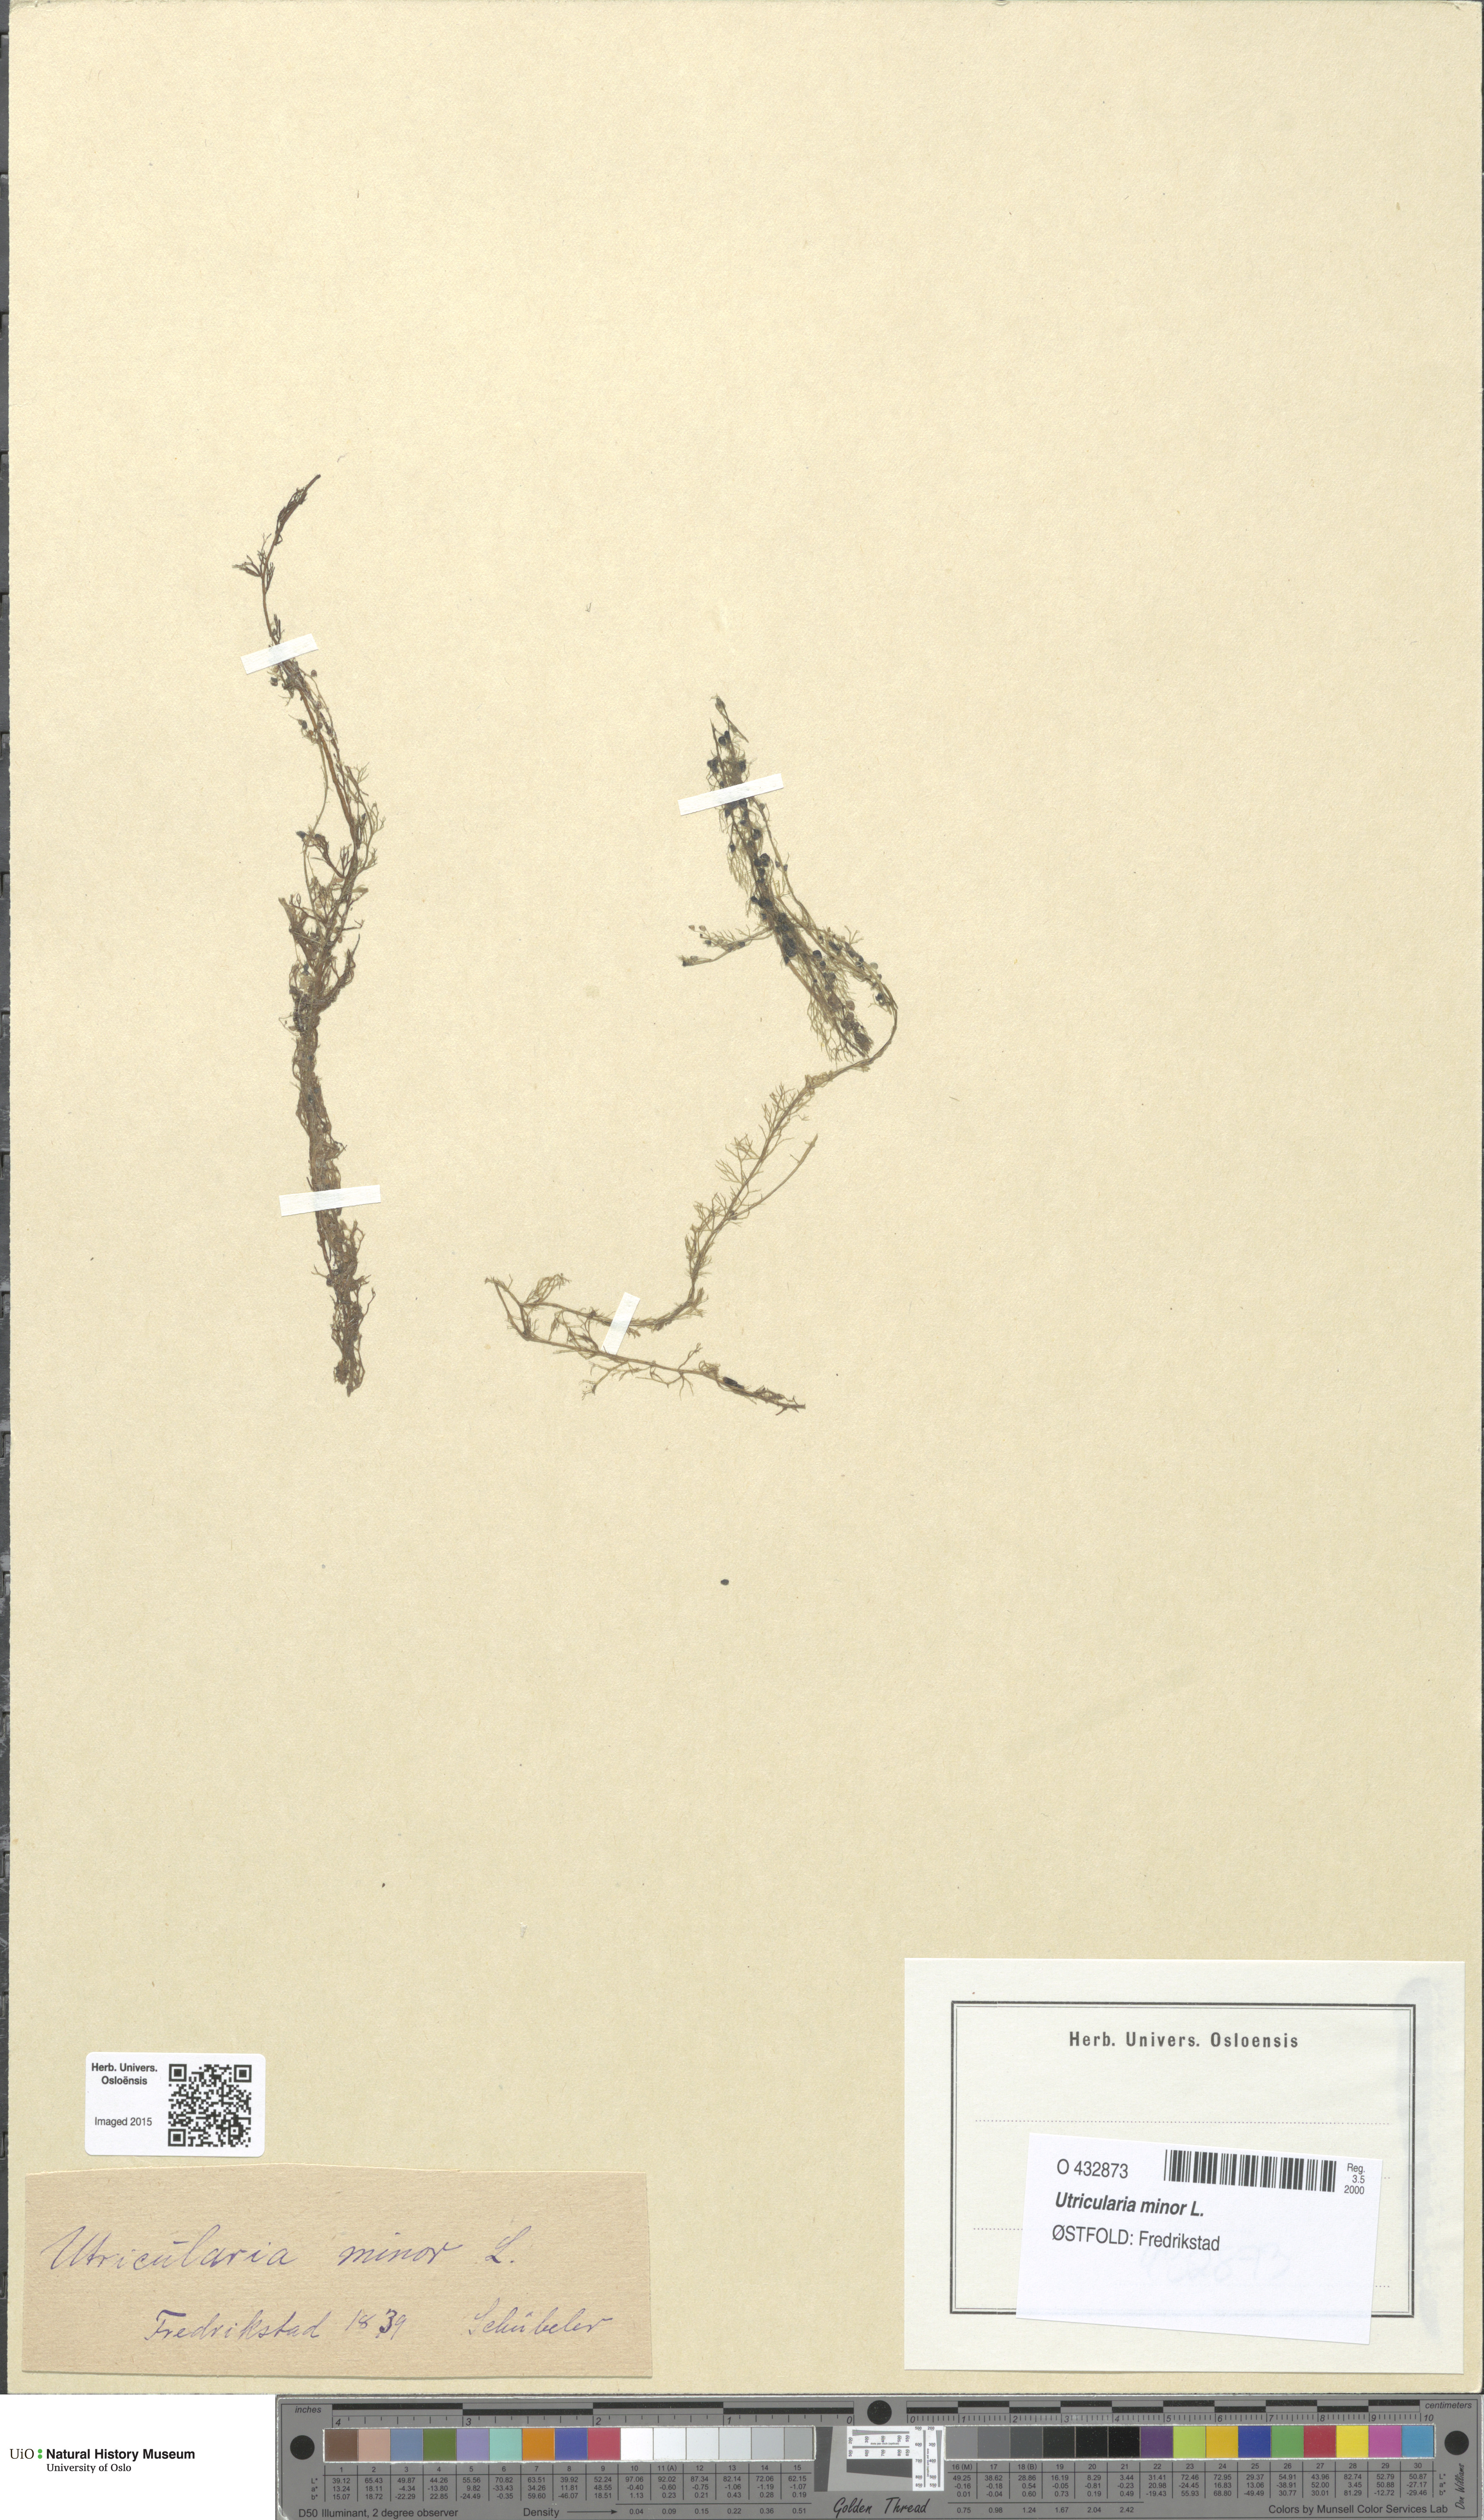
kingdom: Plantae
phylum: Tracheophyta
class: Magnoliopsida
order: Lamiales
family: Lentibulariaceae
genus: Utricularia
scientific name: Utricularia minor
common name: Lesser bladderwort
